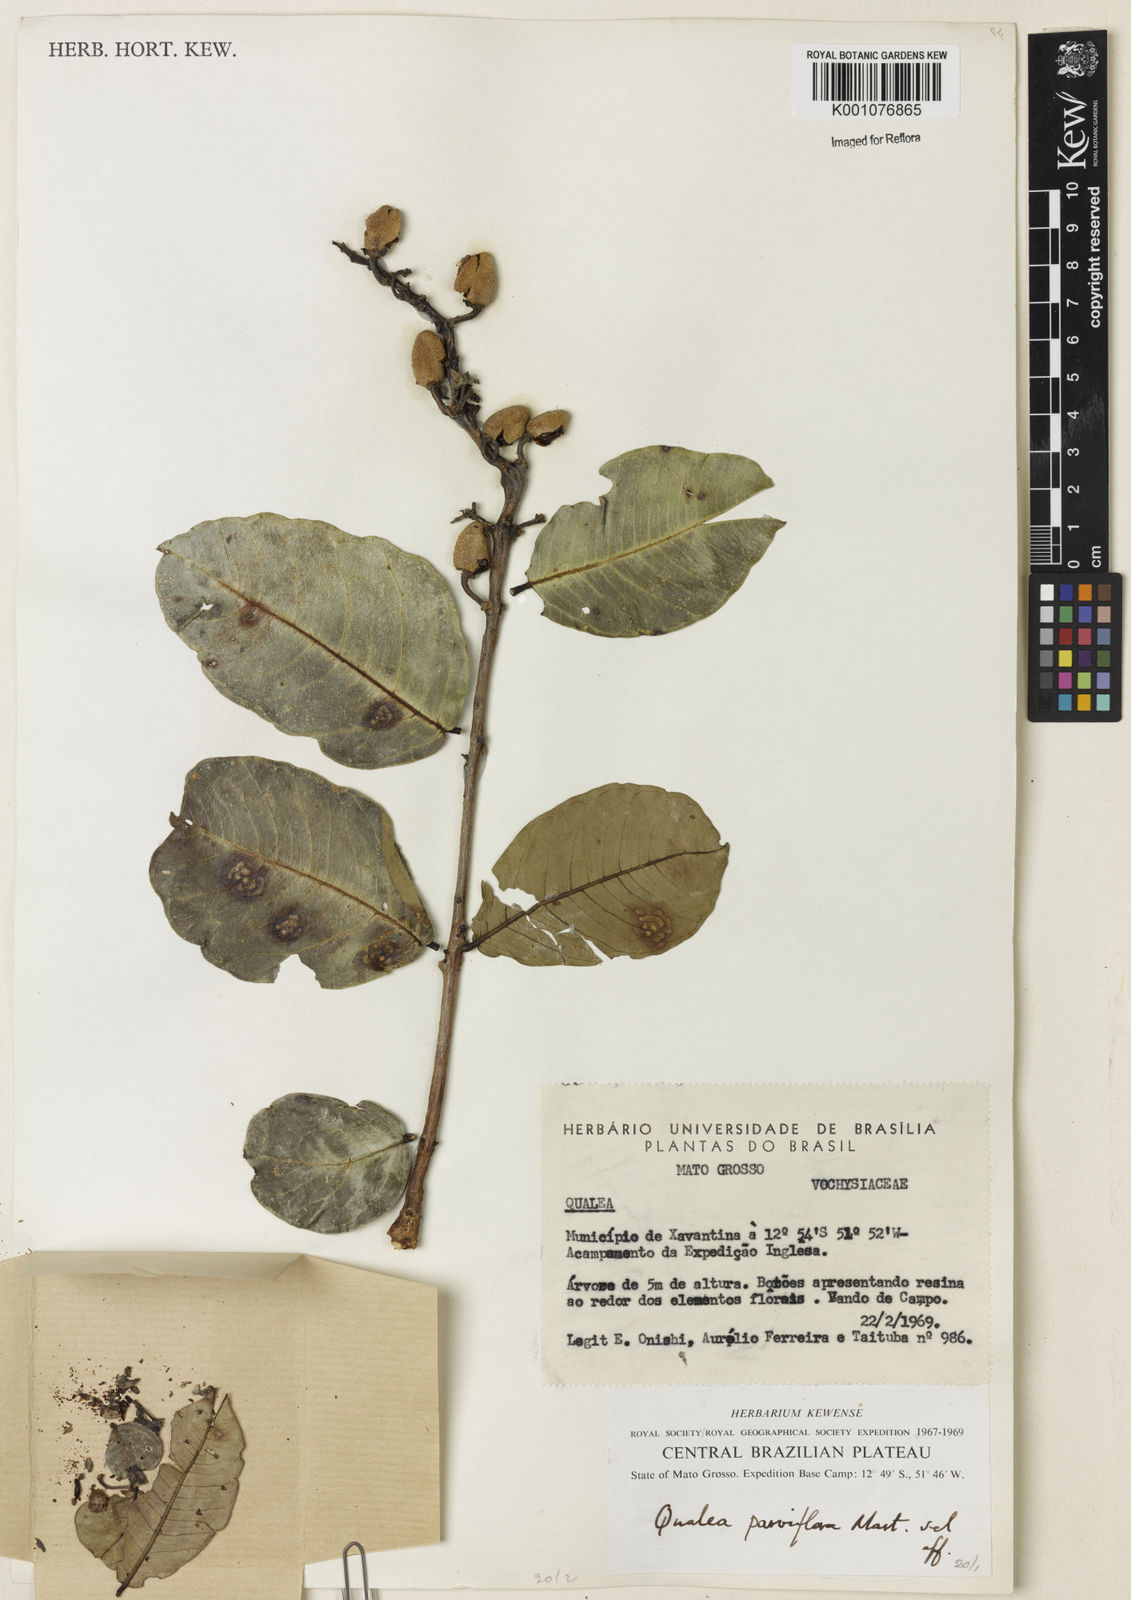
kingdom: Plantae
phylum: Tracheophyta
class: Magnoliopsida
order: Myrtales
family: Vochysiaceae
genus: Qualea
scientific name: Qualea parviflora
